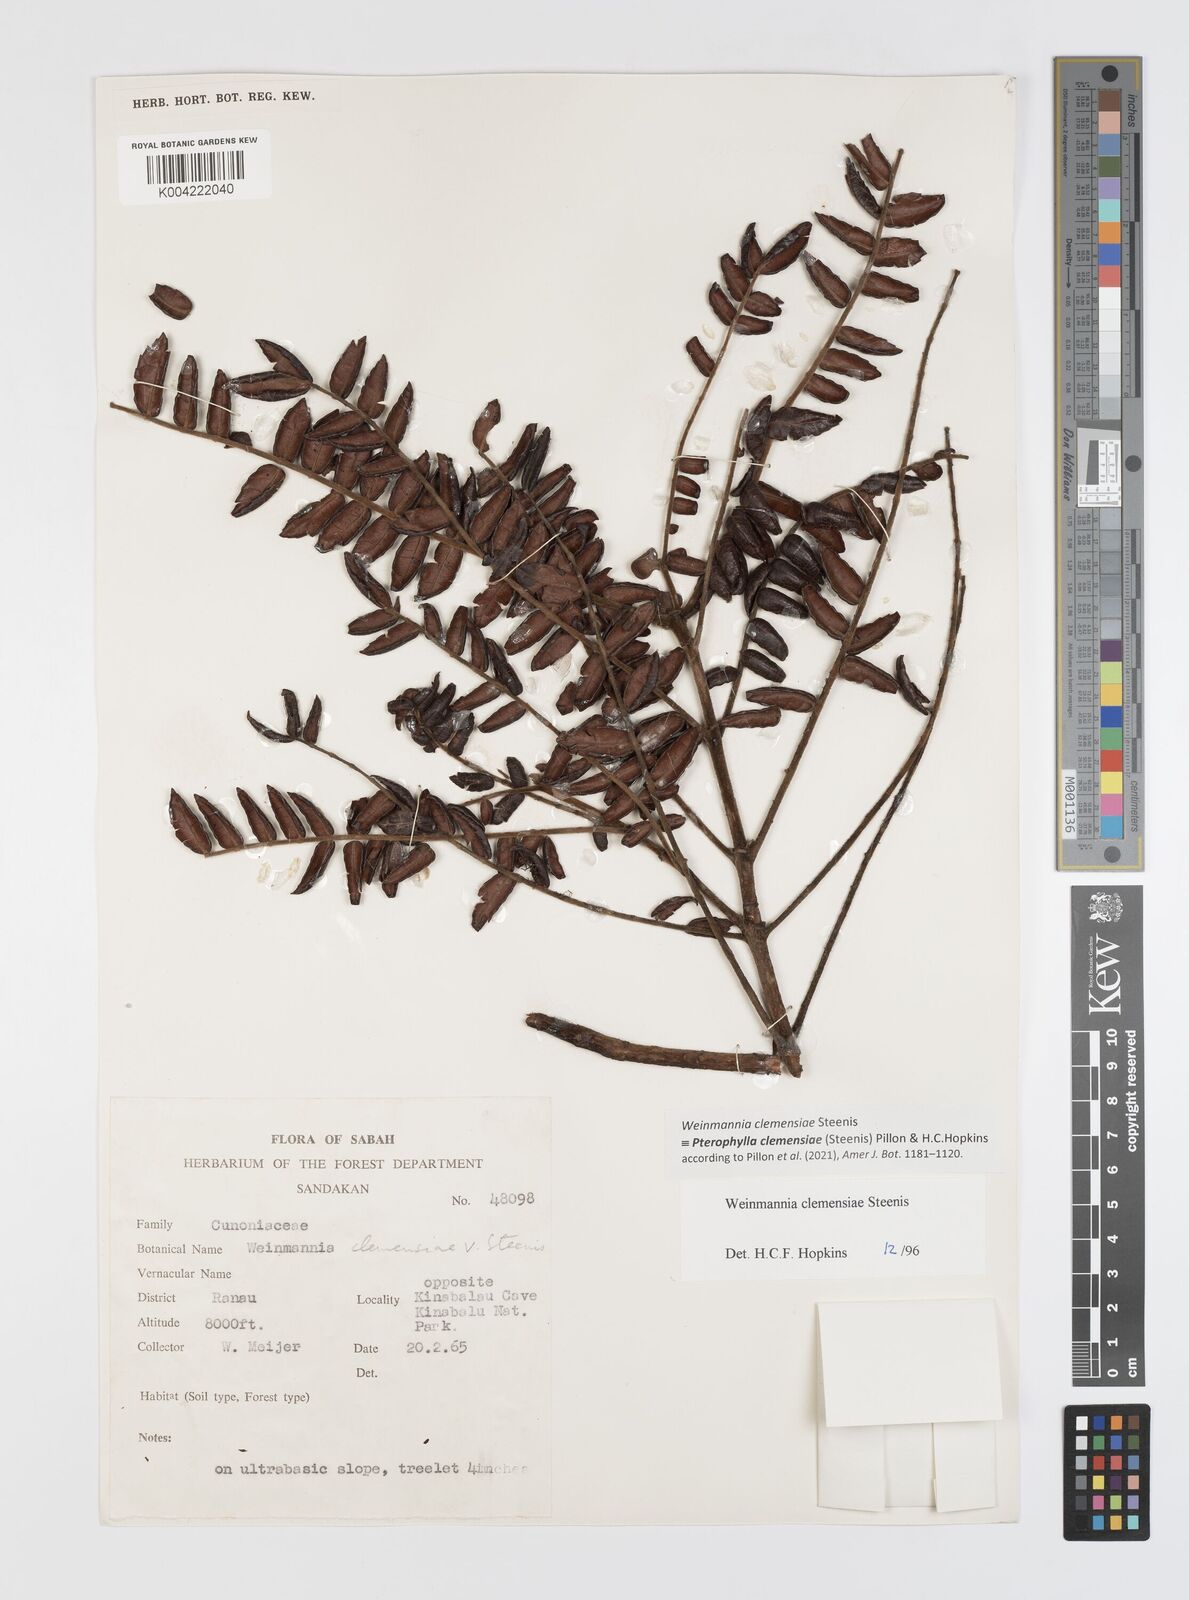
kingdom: Plantae
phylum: Tracheophyta
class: Magnoliopsida
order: Oxalidales
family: Cunoniaceae
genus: Pterophylla
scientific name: Pterophylla clemensiae
